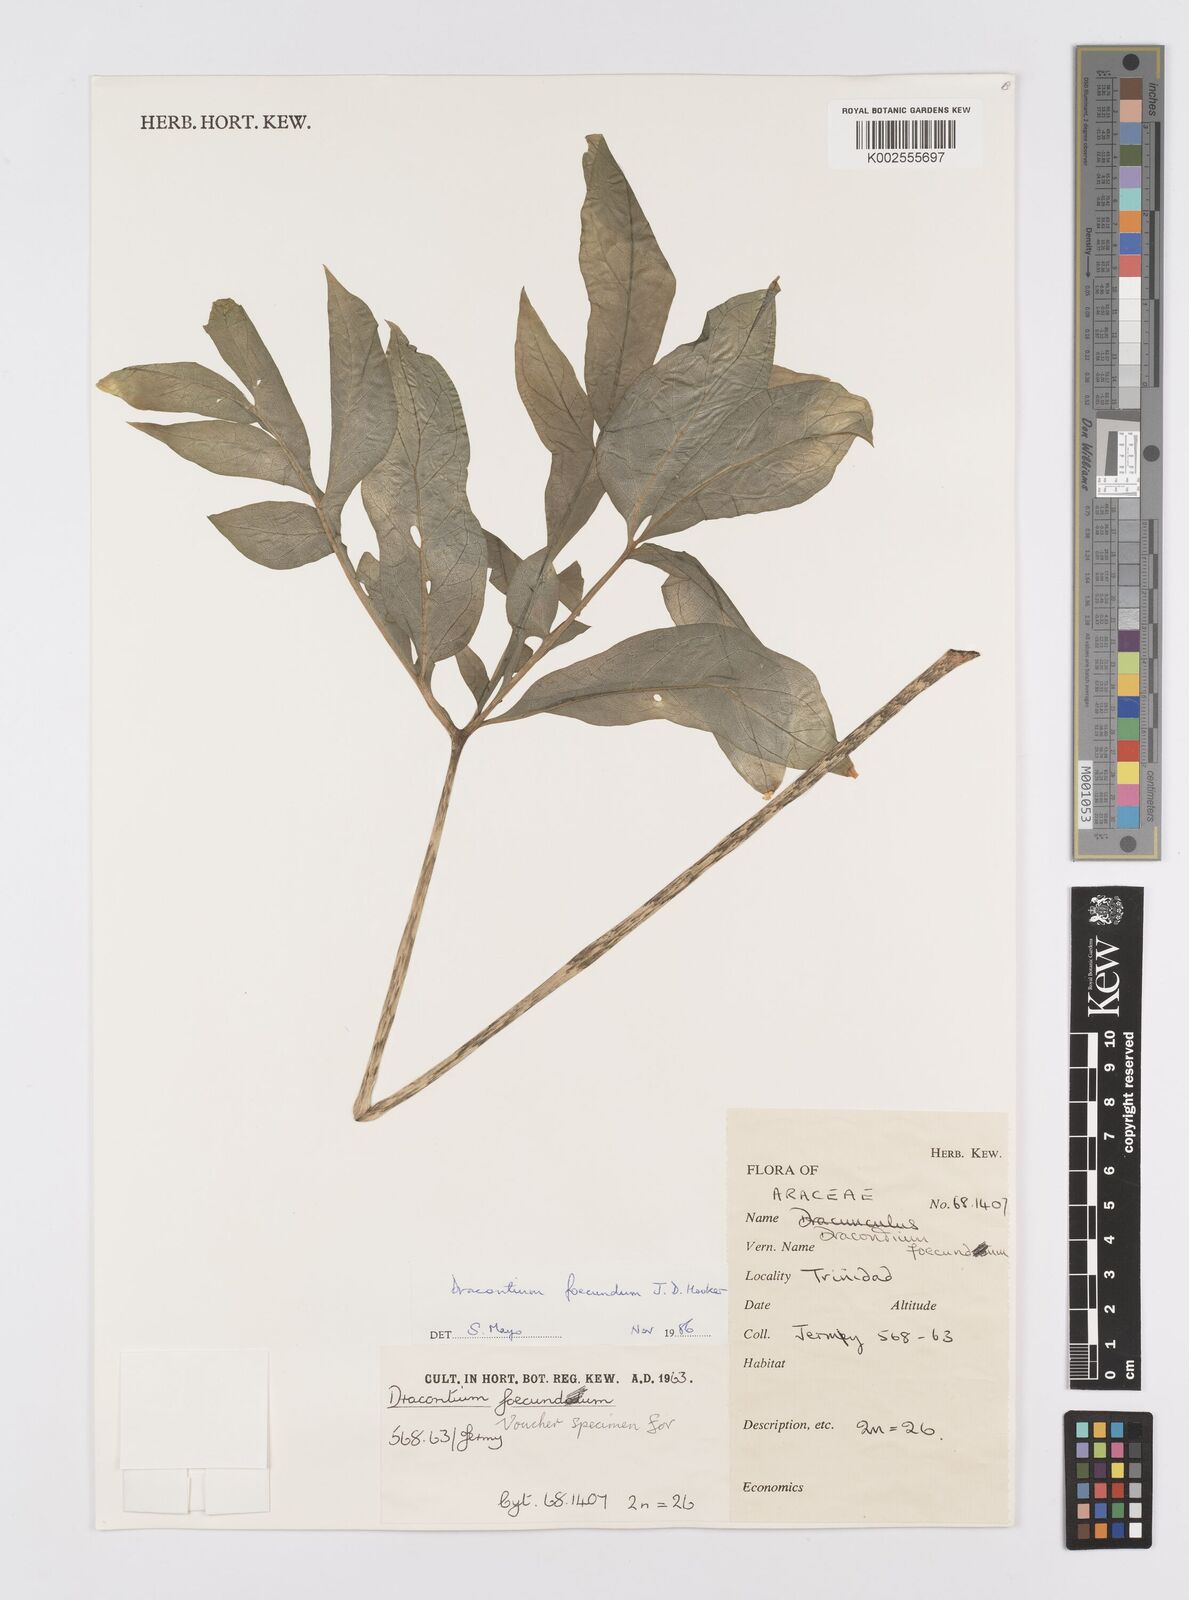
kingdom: Plantae
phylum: Tracheophyta
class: Liliopsida
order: Alismatales
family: Araceae
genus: Dracontium
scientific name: Dracontium asperum
